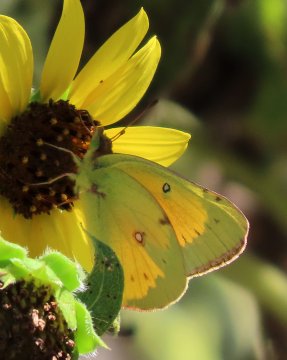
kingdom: Animalia
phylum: Arthropoda
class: Insecta
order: Lepidoptera
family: Pieridae
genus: Colias
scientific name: Colias eurytheme
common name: Orange Sulphur
